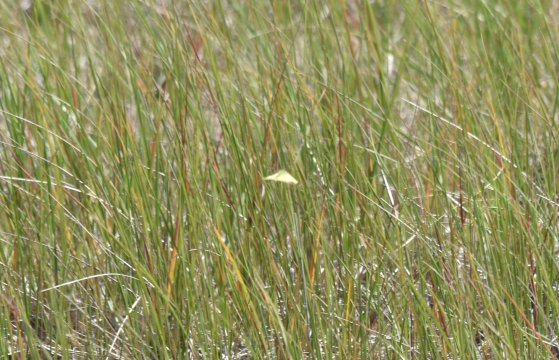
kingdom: Animalia
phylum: Arthropoda
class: Insecta
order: Lepidoptera
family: Pieridae
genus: Colias
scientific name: Colias philodice
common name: Clouded Sulphur
